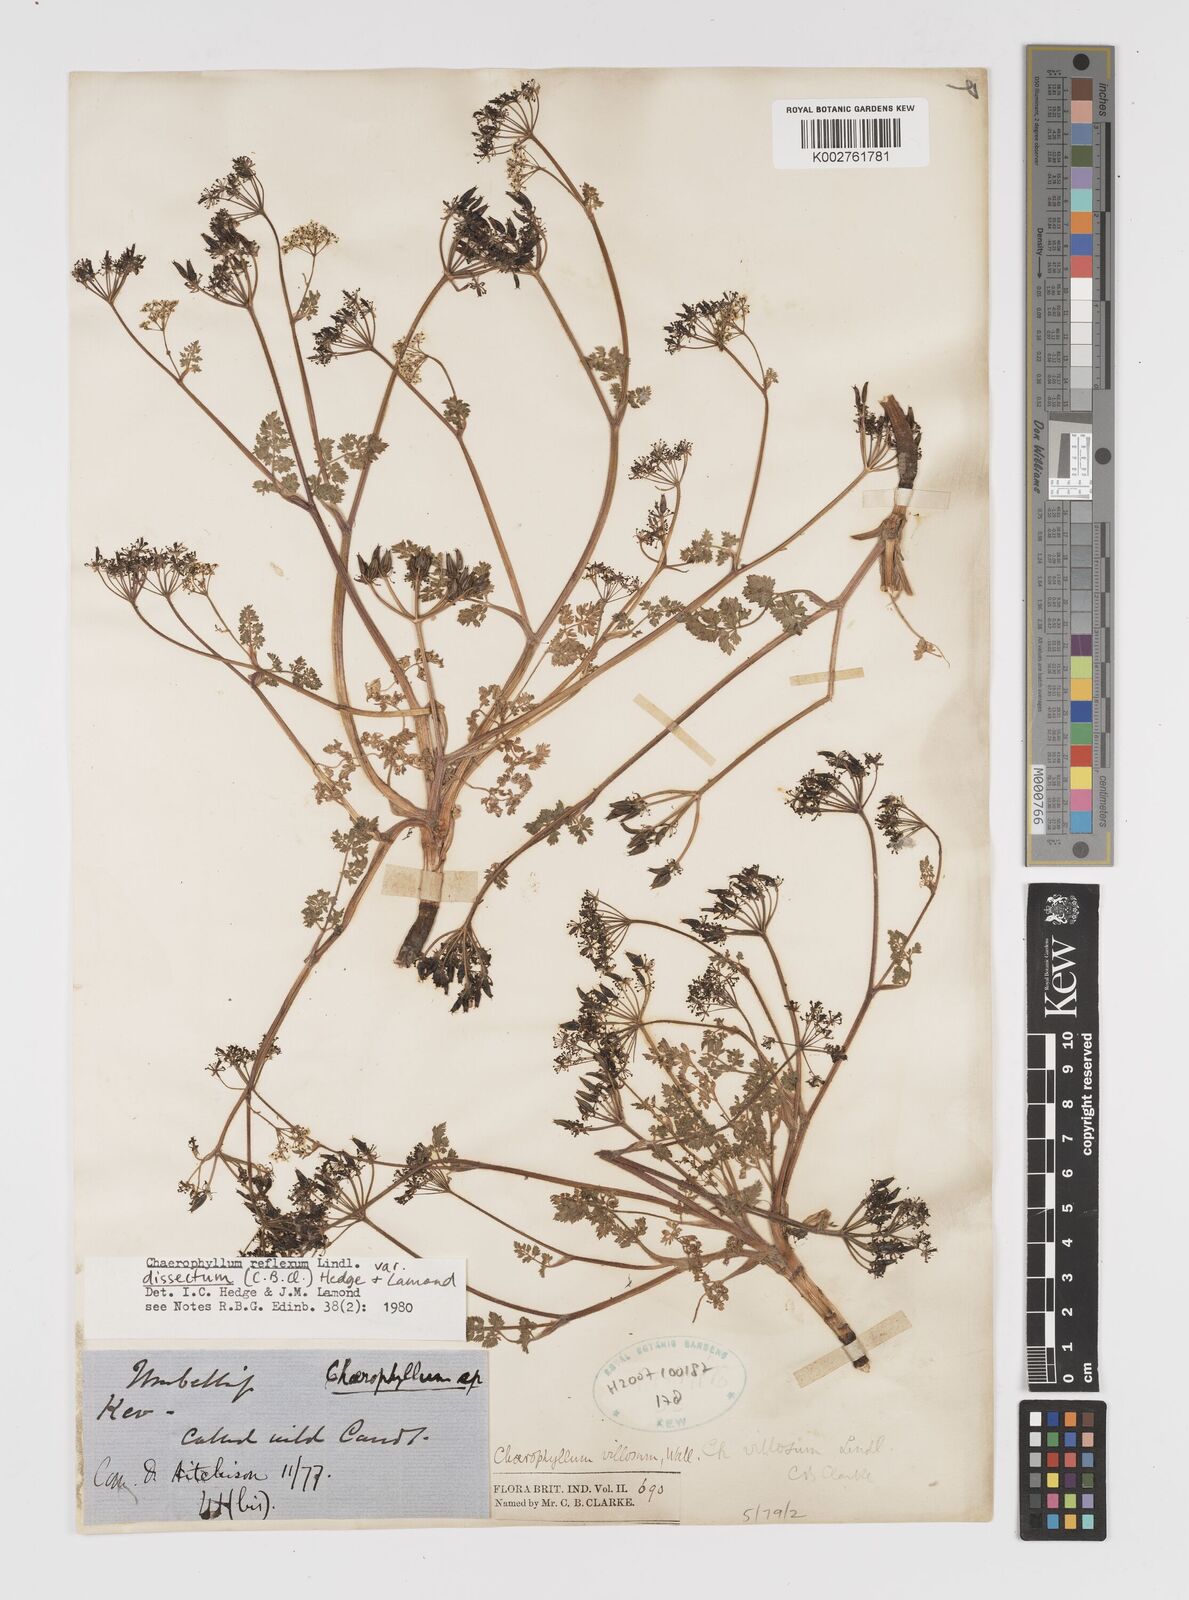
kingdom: Plantae
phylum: Tracheophyta
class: Magnoliopsida
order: Apiales
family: Apiaceae
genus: Chaerophyllum
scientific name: Chaerophyllum reflexum
